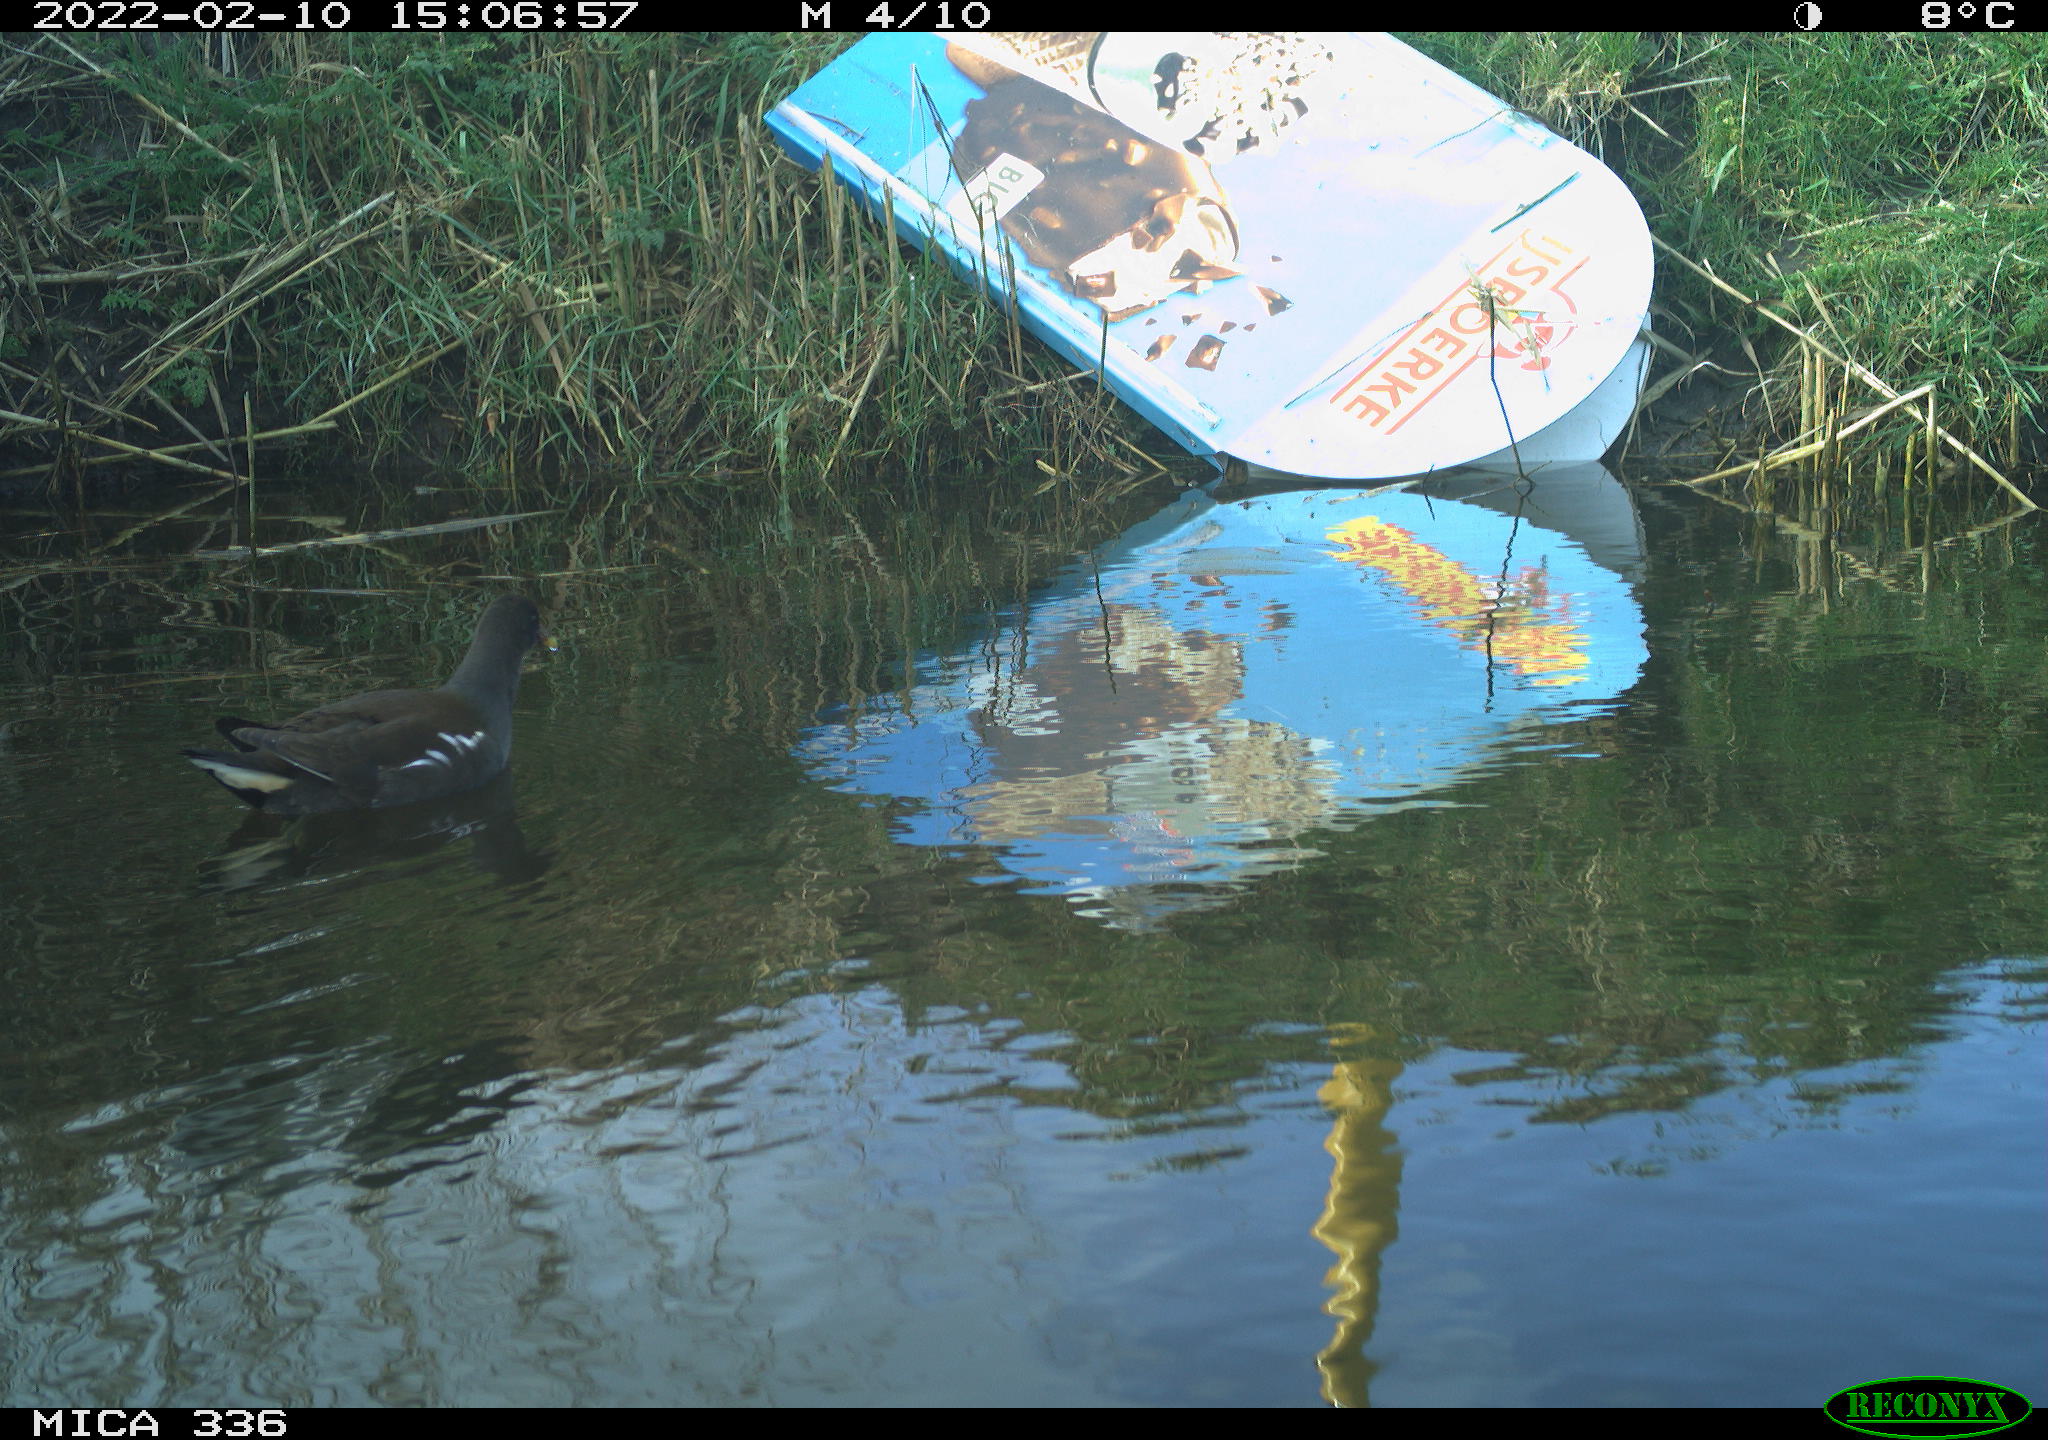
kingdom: Animalia
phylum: Chordata
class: Aves
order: Gruiformes
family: Rallidae
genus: Gallinula
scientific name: Gallinula chloropus
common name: Common moorhen
